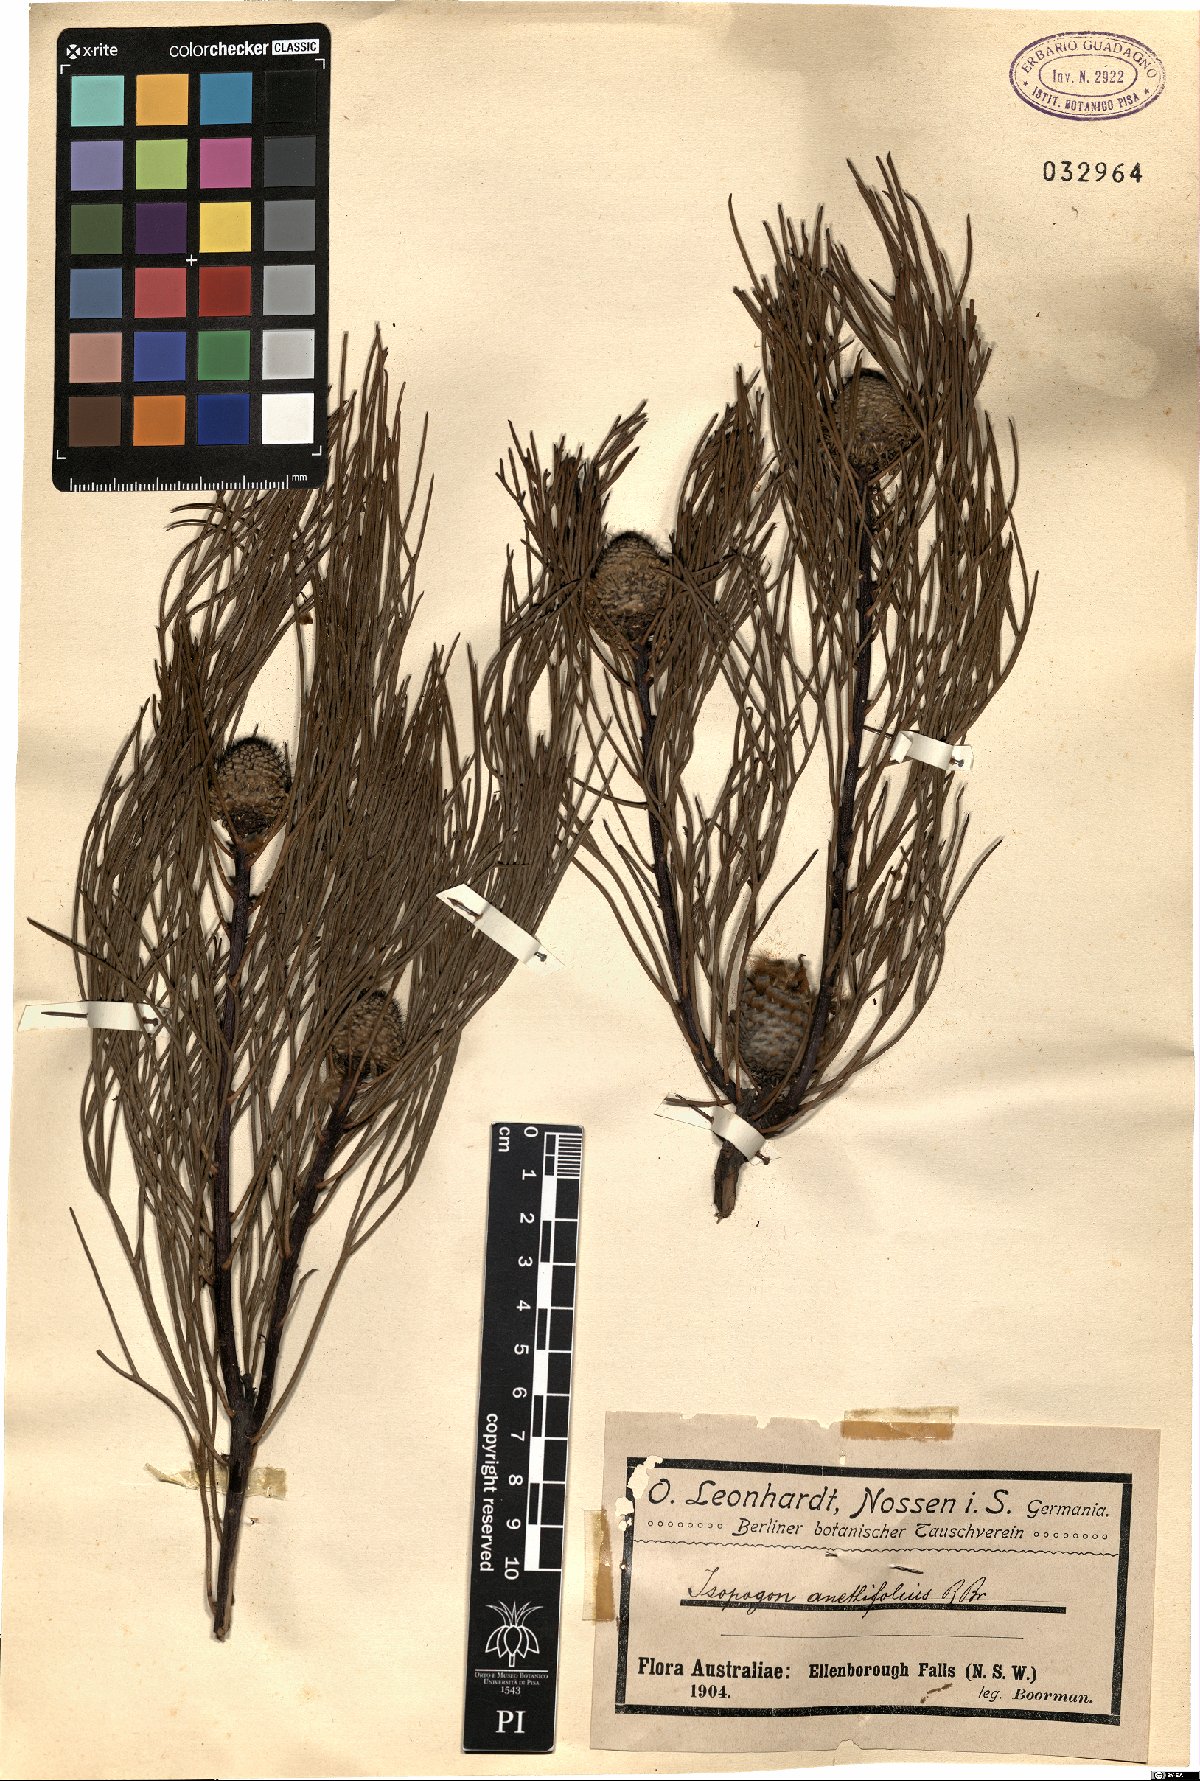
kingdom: Plantae
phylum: Tracheophyta
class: Magnoliopsida
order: Proteales
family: Proteaceae
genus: Isopogon
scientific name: Isopogon anethifolius
